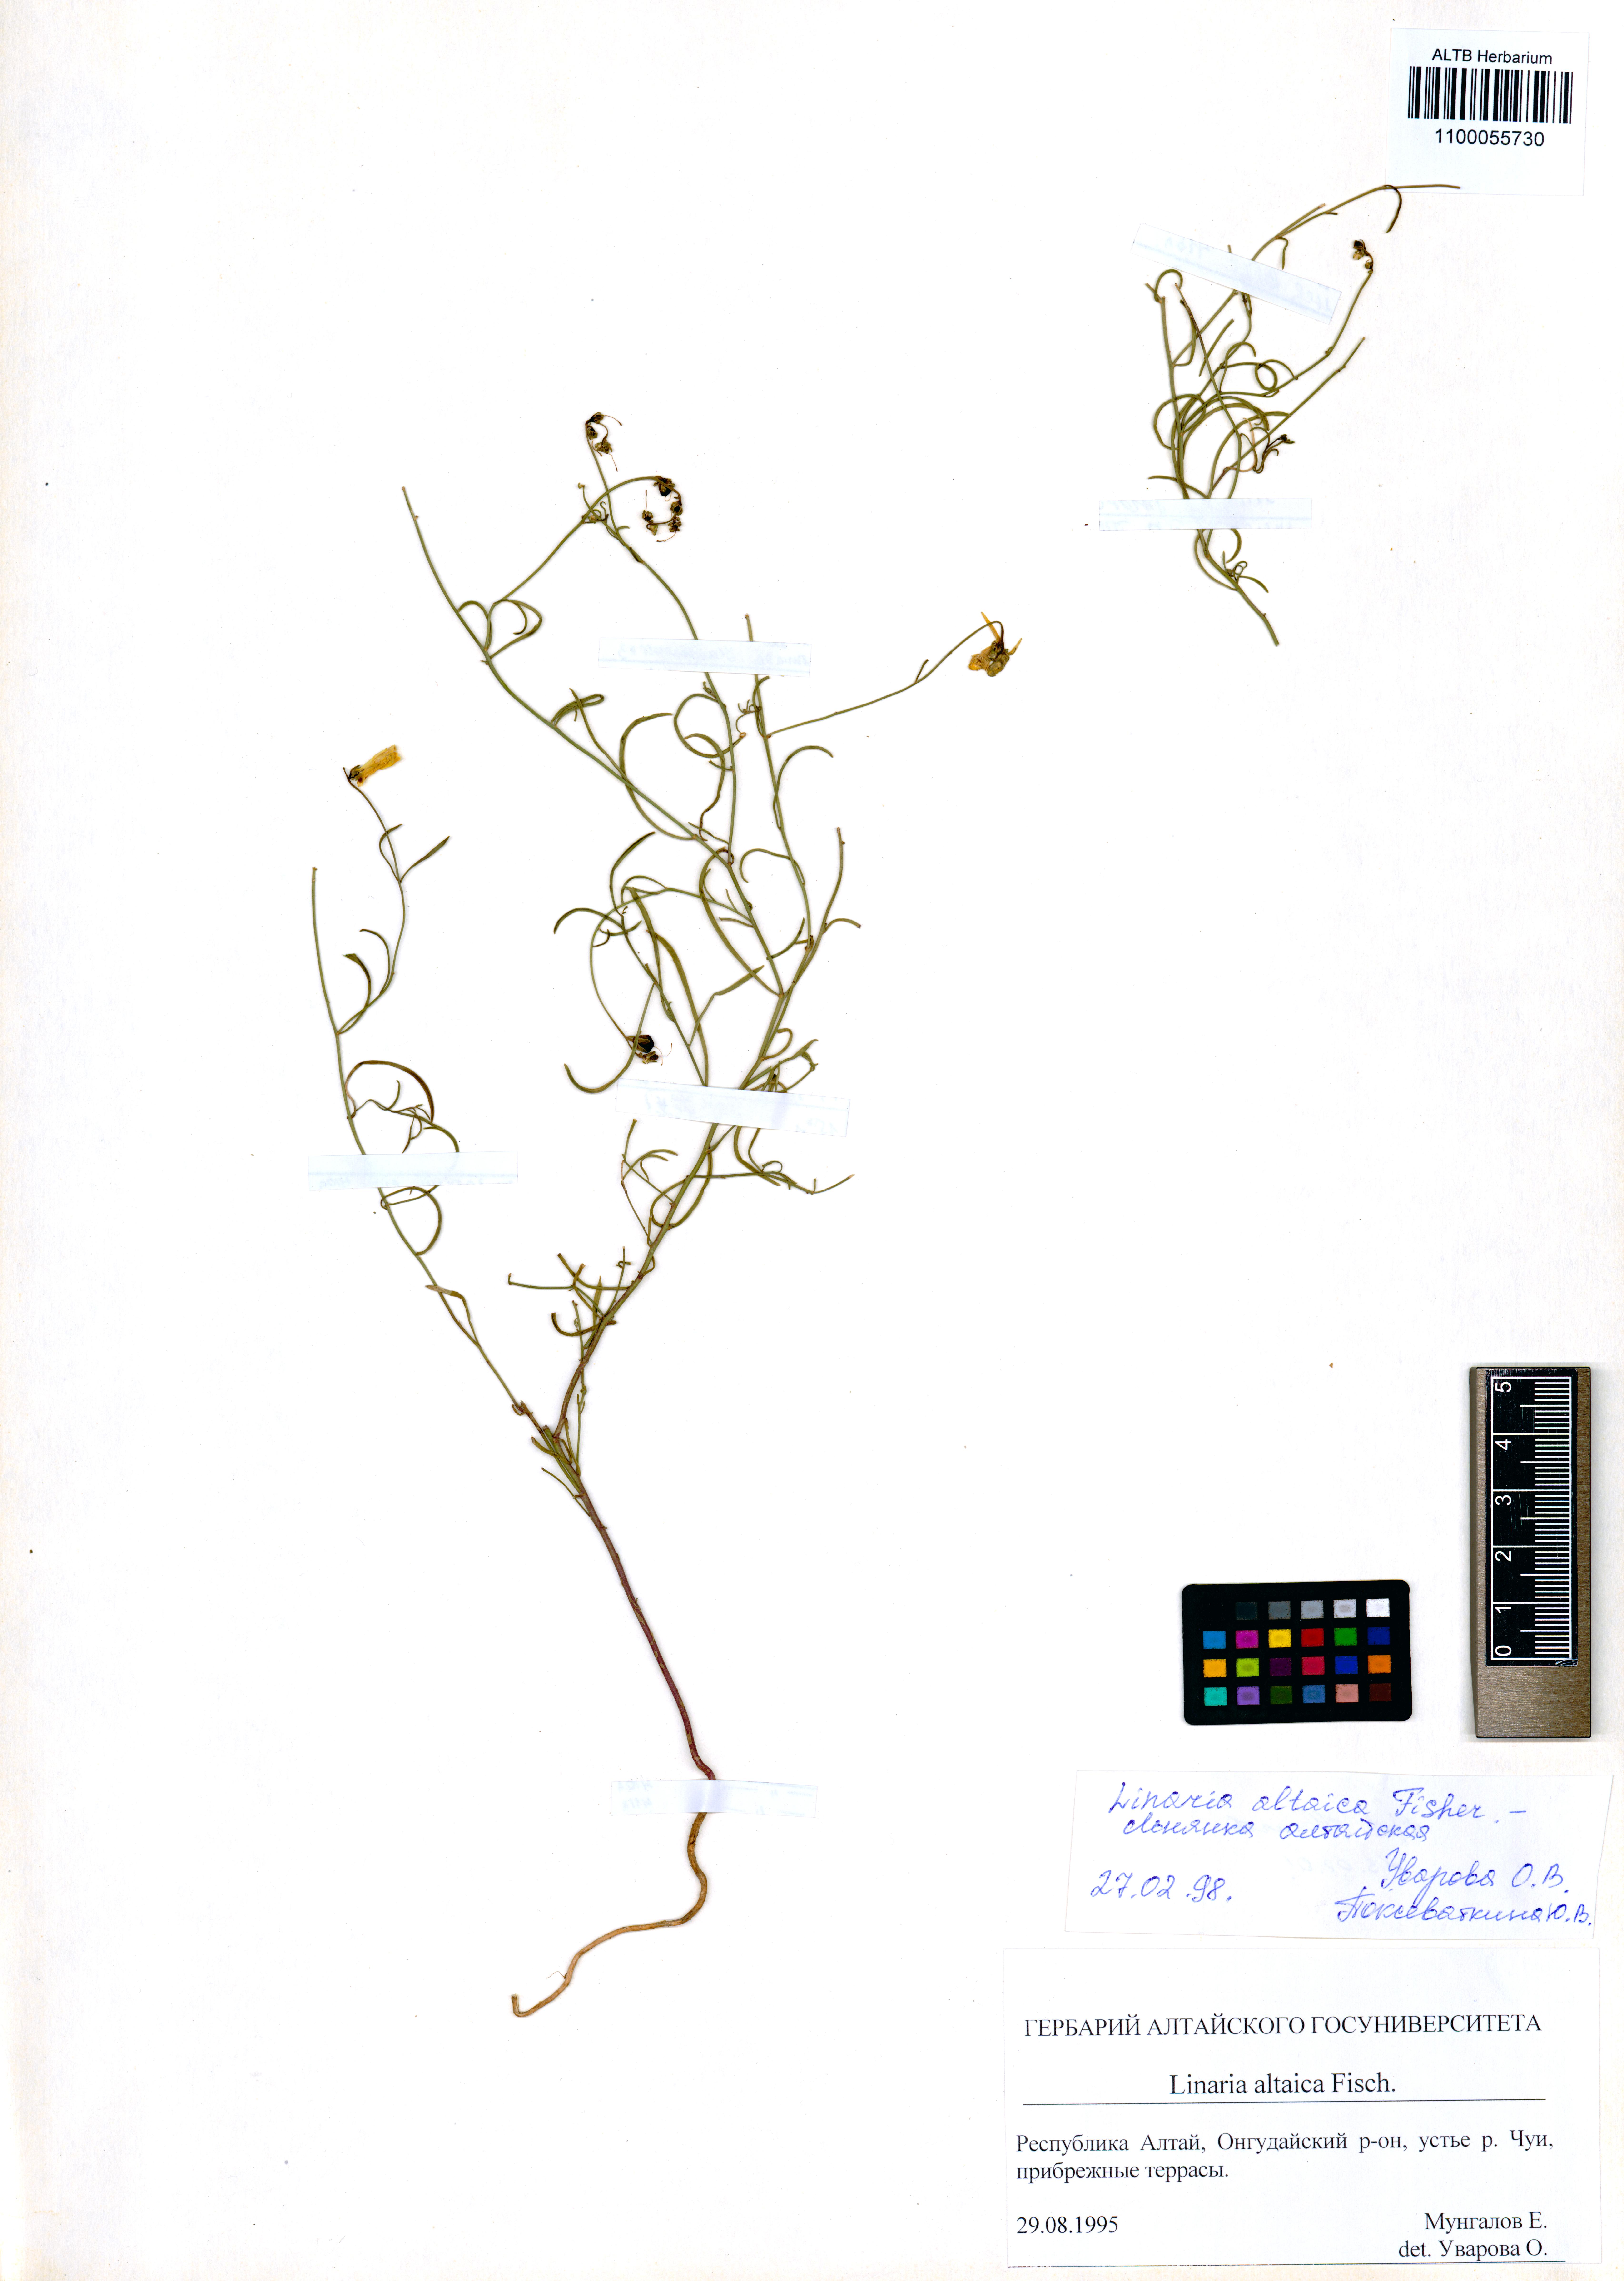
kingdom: Plantae
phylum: Tracheophyta
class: Magnoliopsida
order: Lamiales
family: Plantaginaceae
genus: Linaria
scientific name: Linaria altaica
